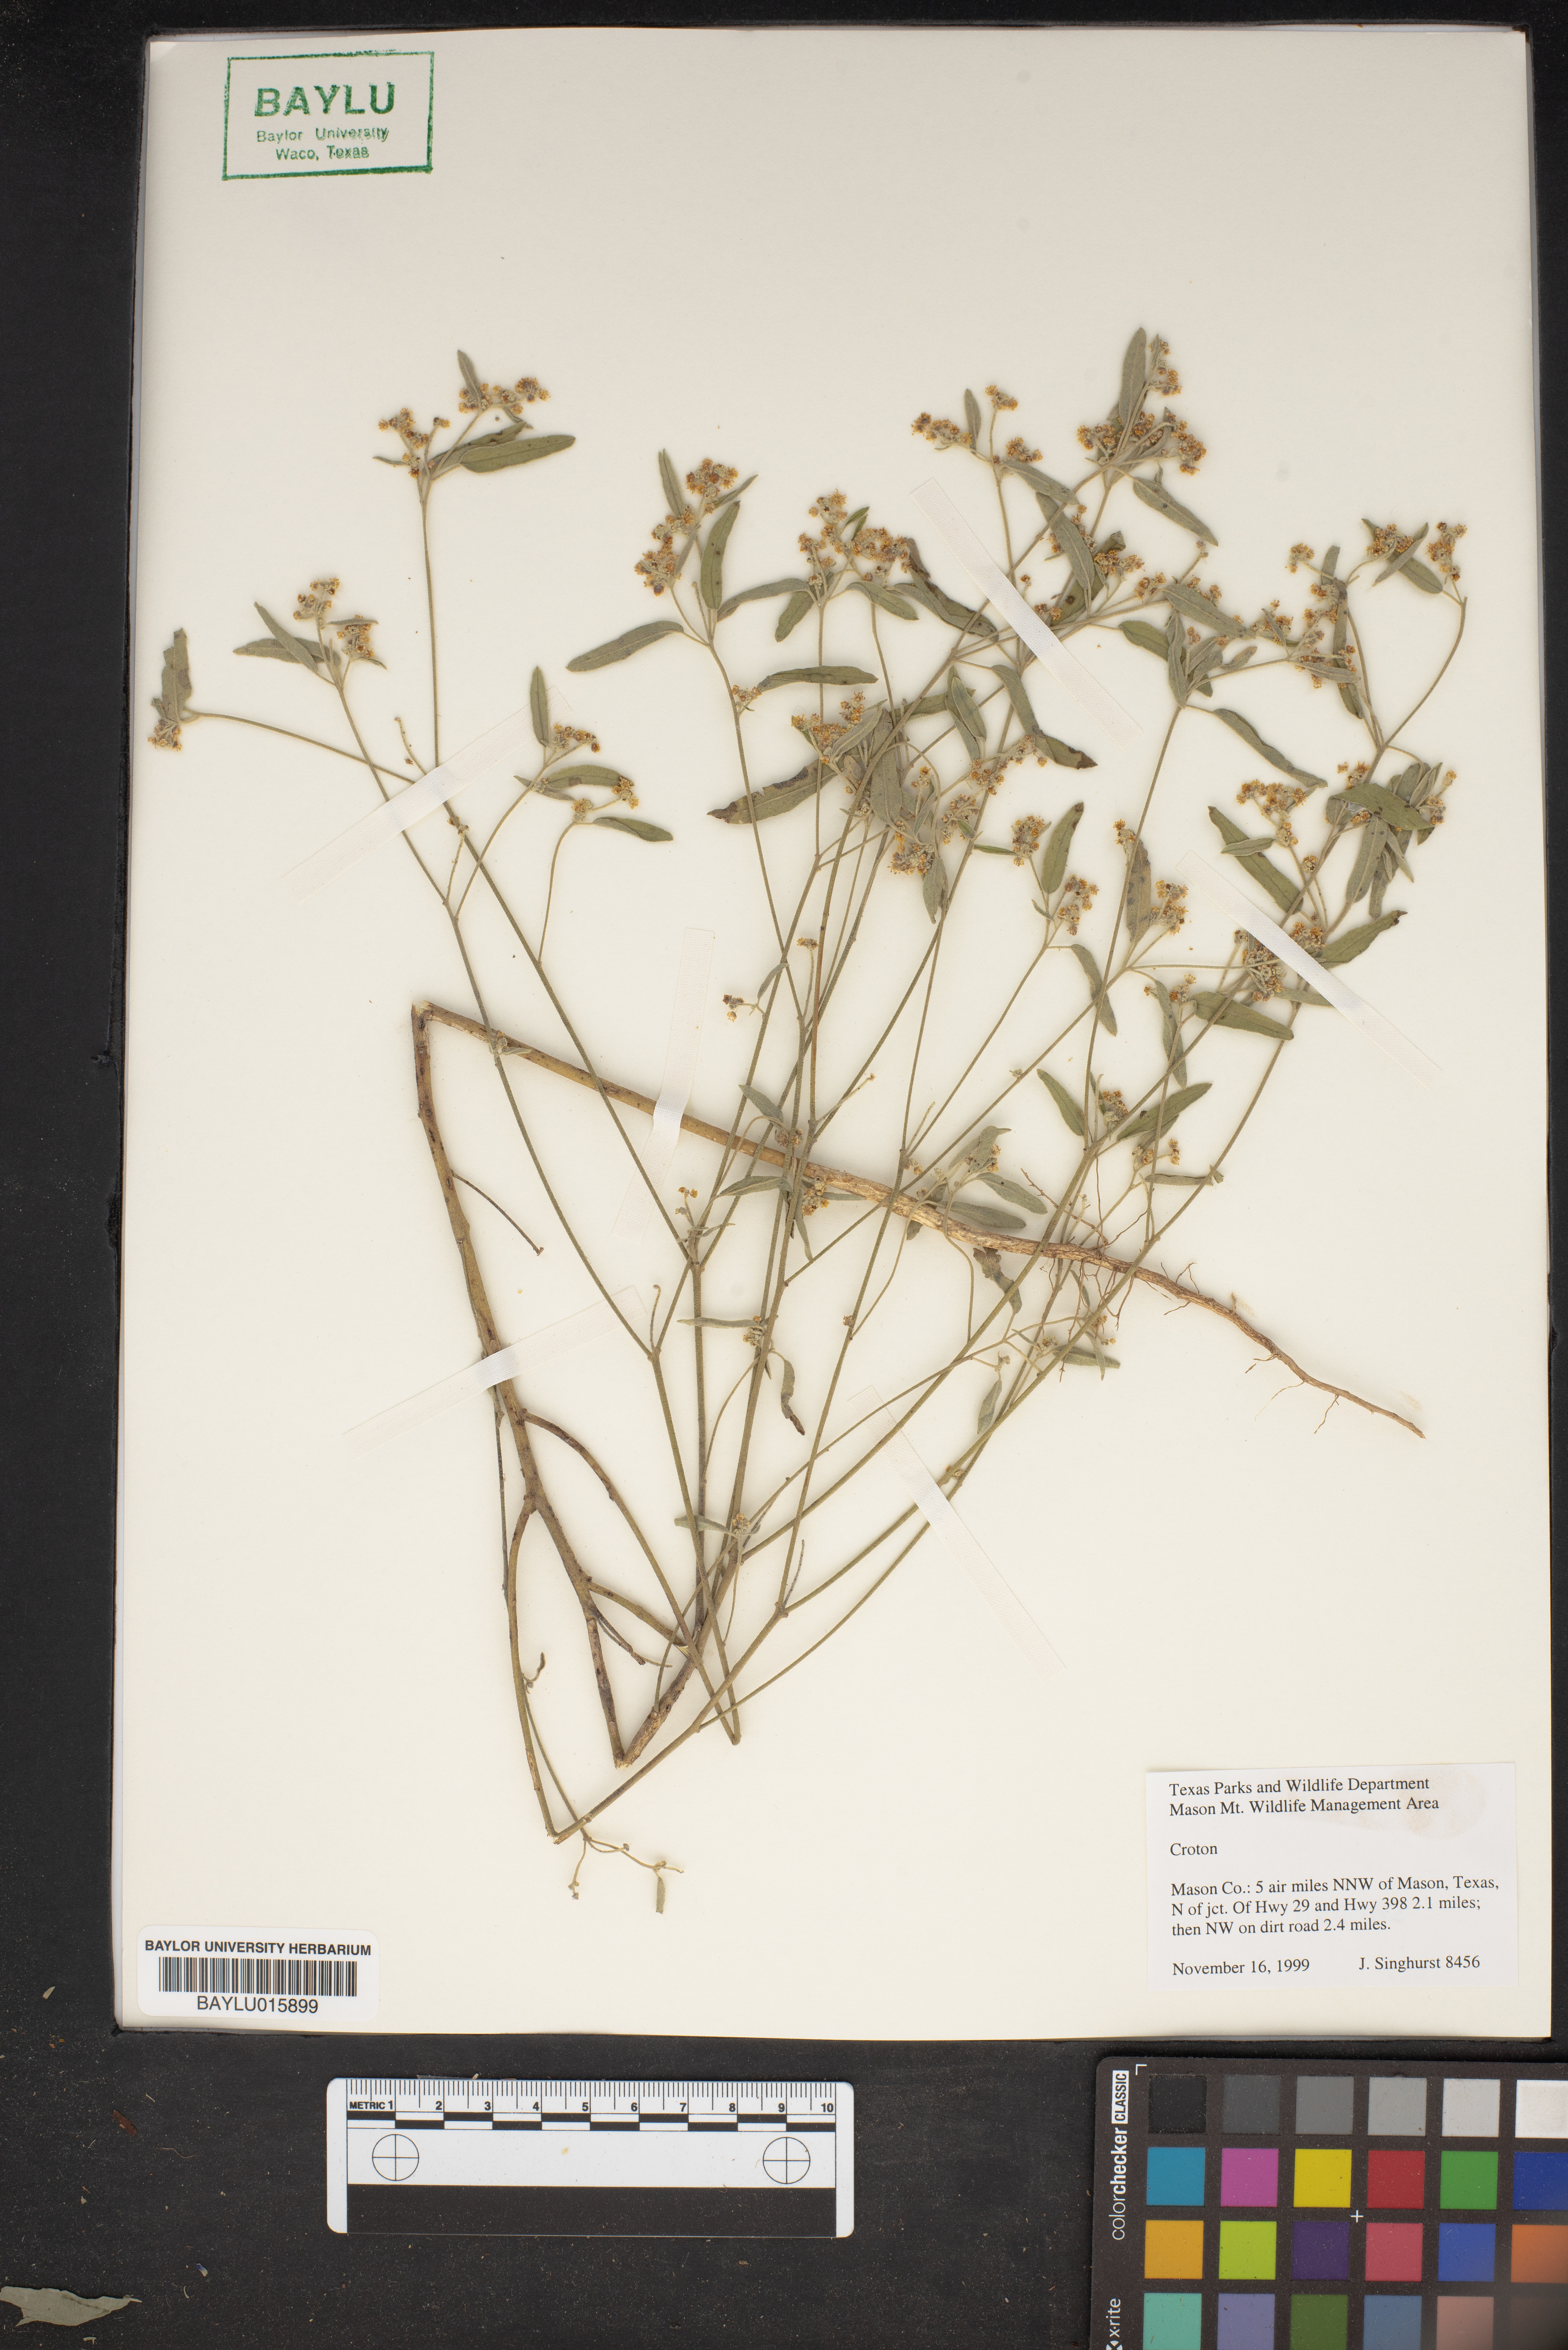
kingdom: Plantae
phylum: Tracheophyta
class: Magnoliopsida
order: Malpighiales
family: Euphorbiaceae
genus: Croton
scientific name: Croton
